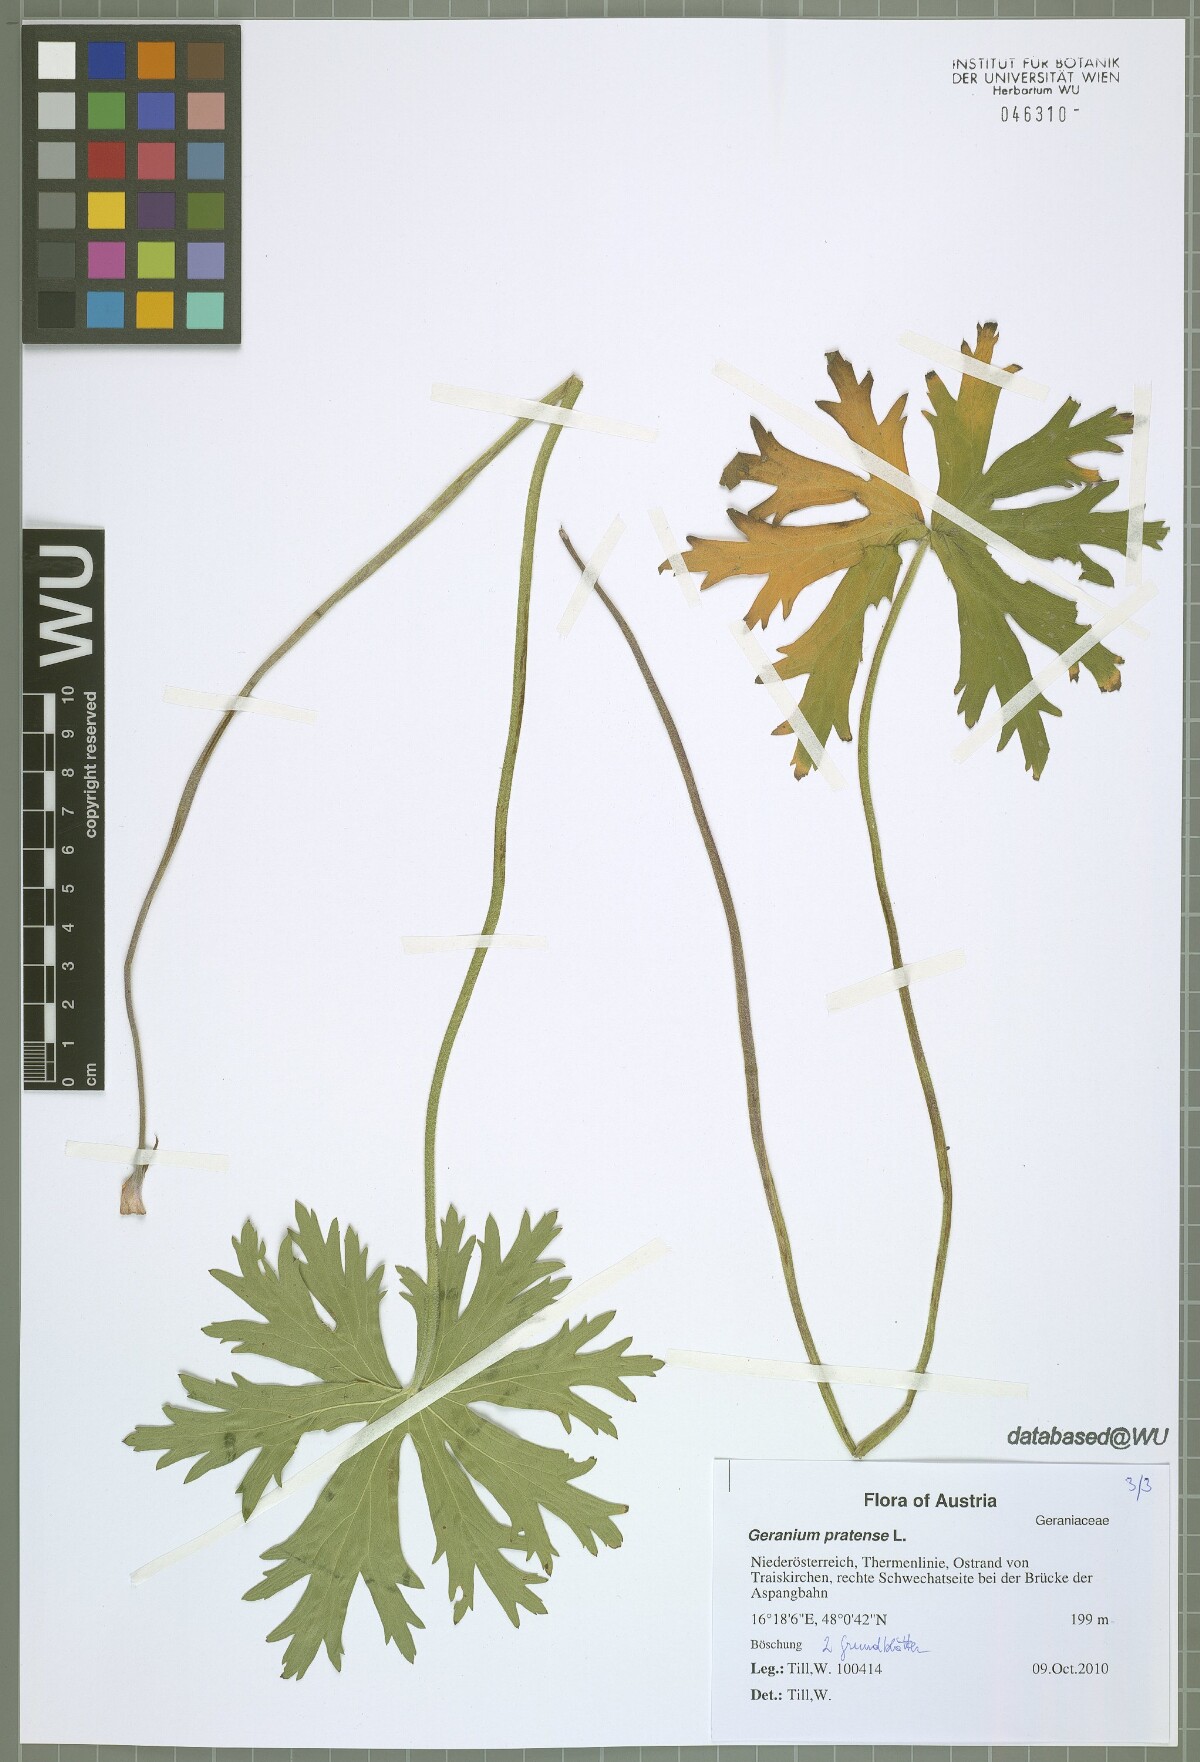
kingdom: Plantae
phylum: Tracheophyta
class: Magnoliopsida
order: Geraniales
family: Geraniaceae
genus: Geranium
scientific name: Geranium pratense
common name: Meadow crane's-bill
